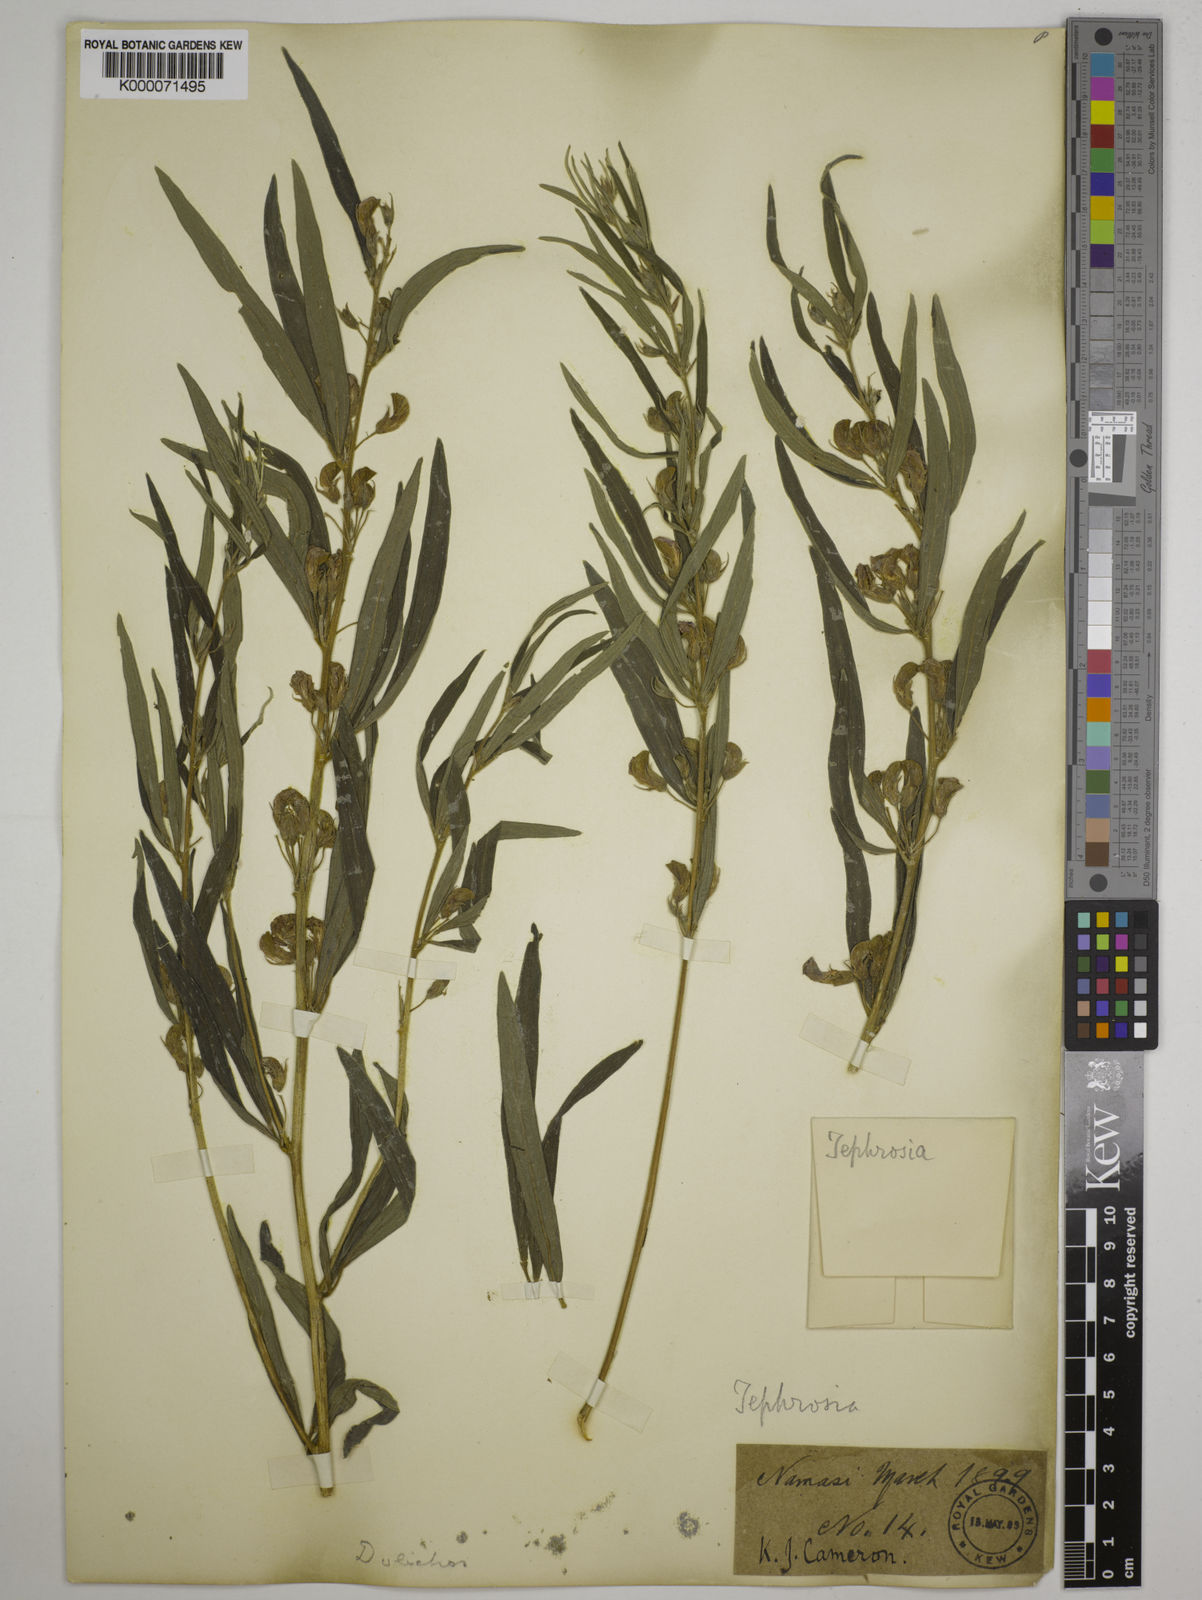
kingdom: Plantae
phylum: Tracheophyta
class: Magnoliopsida
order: Fabales
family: Fabaceae
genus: Dolichos
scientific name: Dolichos trinervatus
